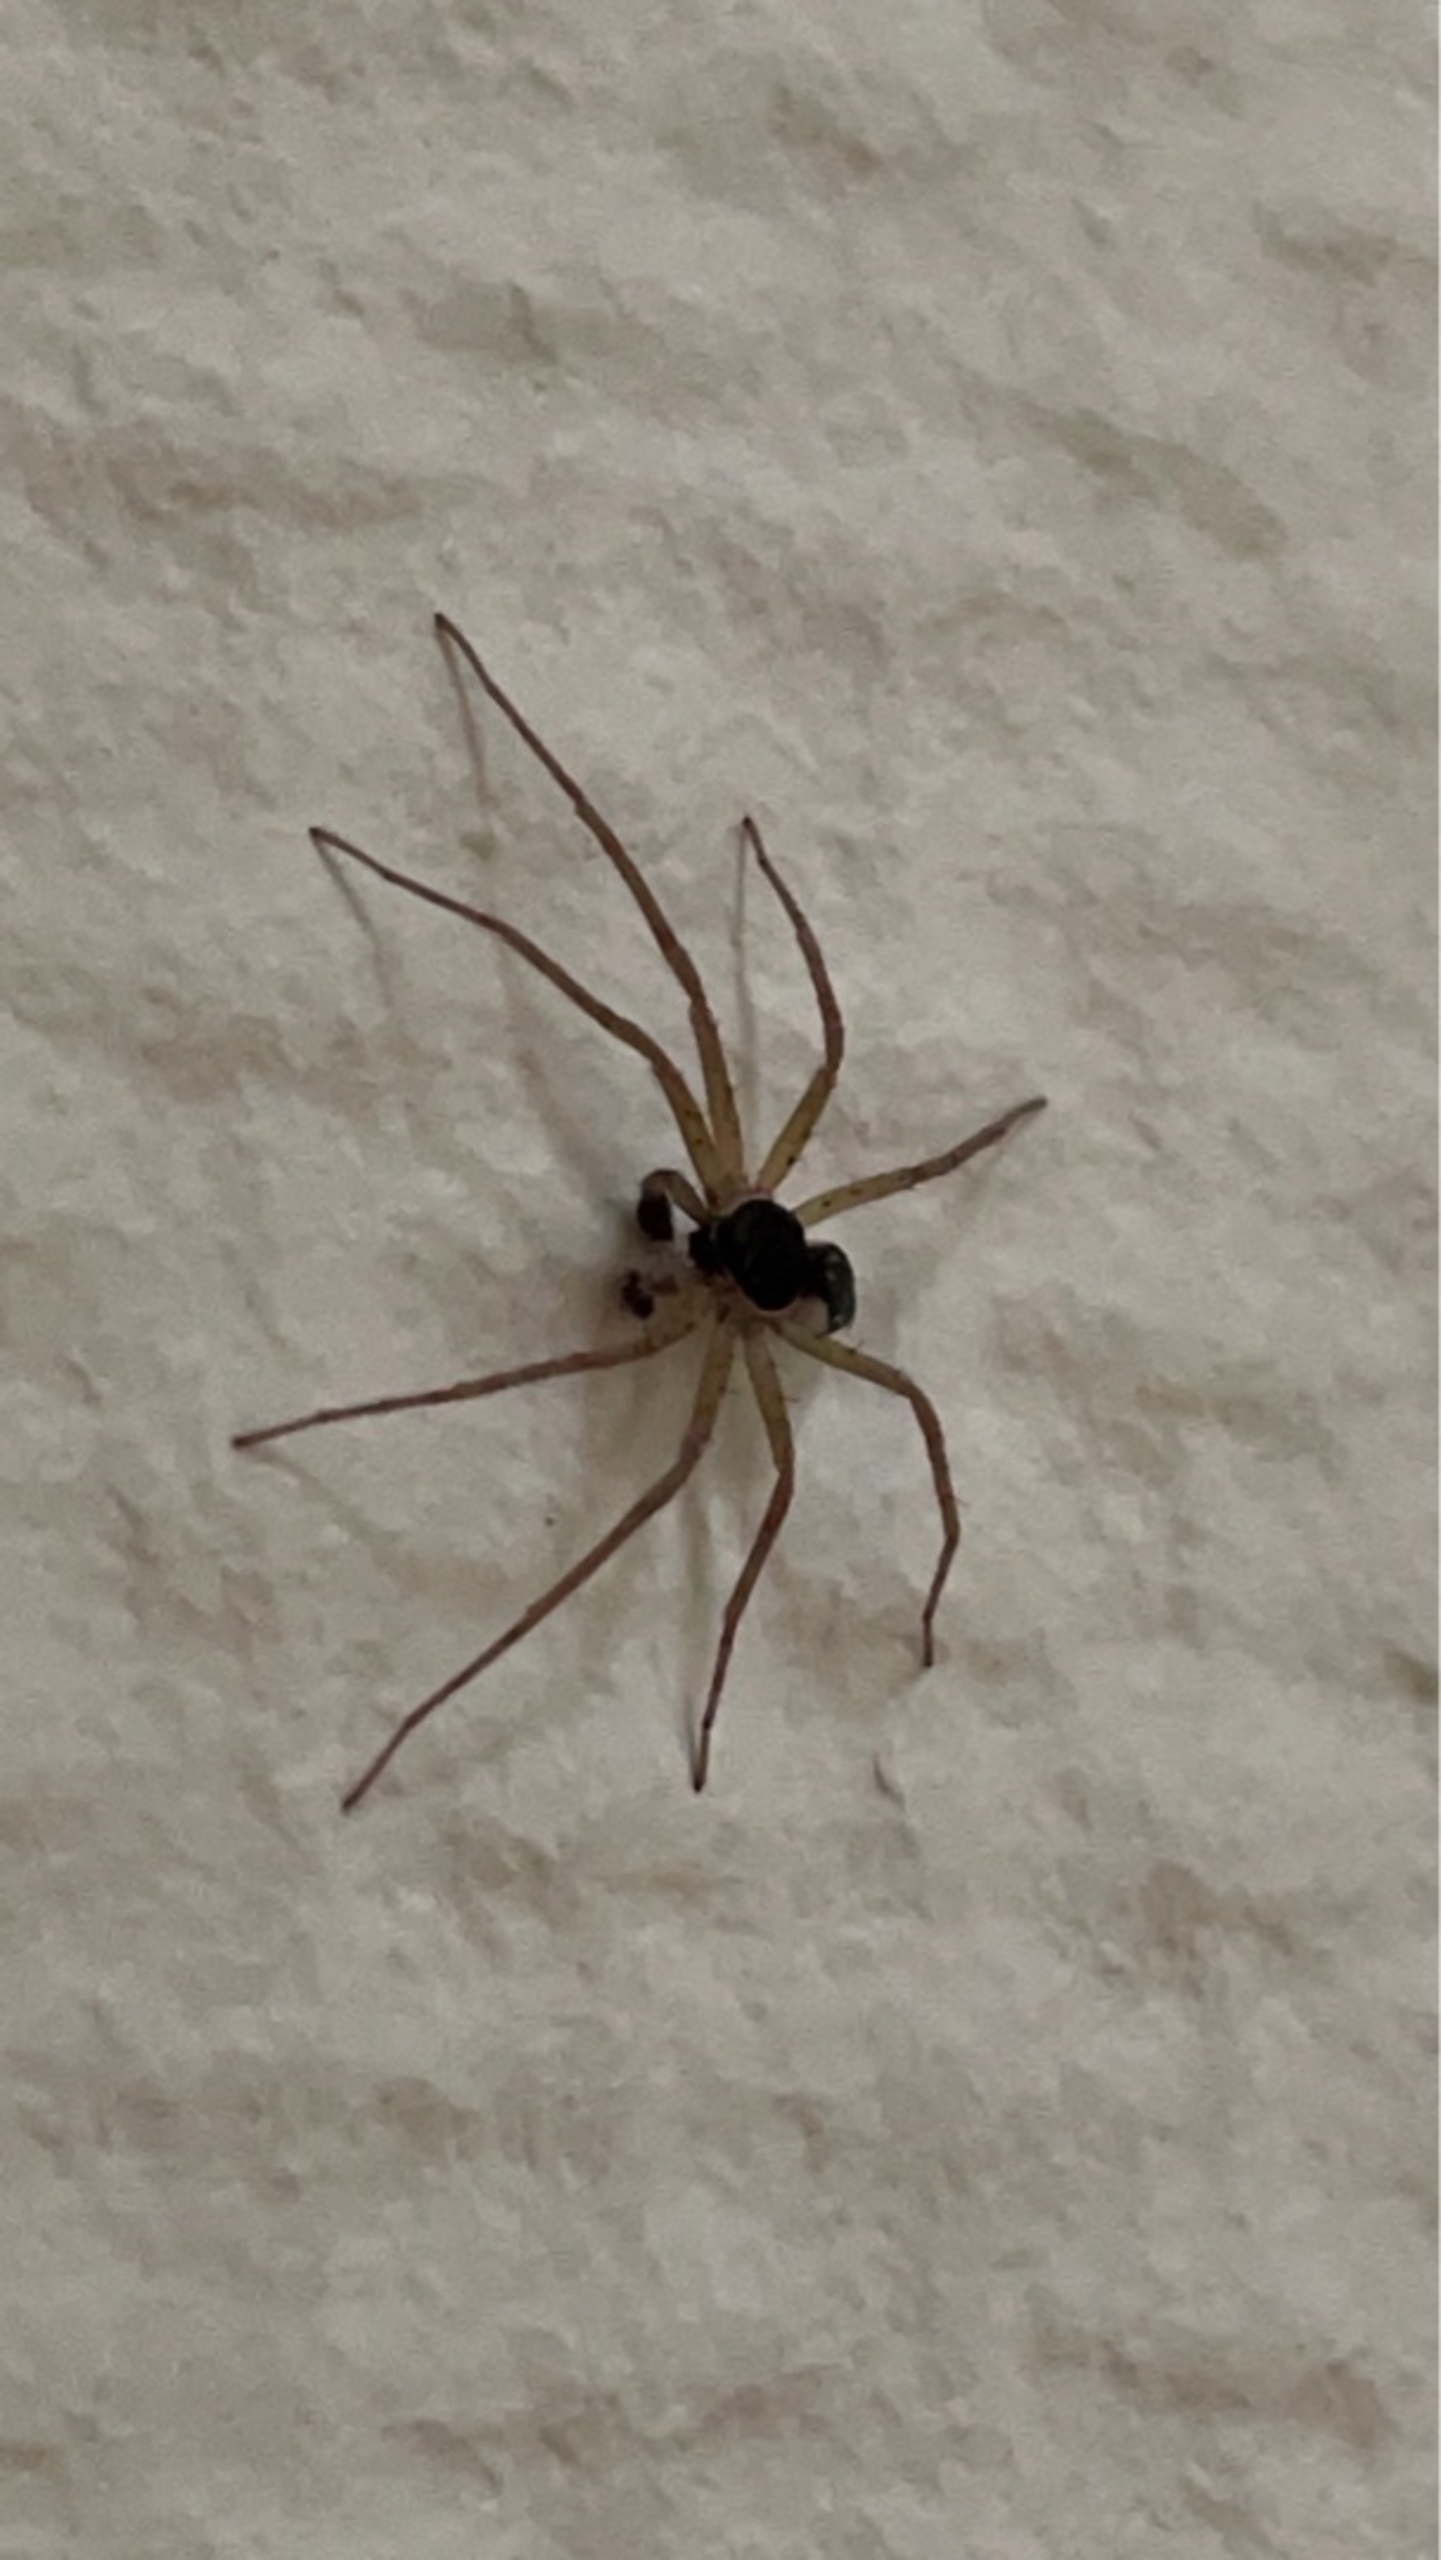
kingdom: Animalia
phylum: Arthropoda
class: Arachnida
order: Araneae
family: Philodromidae
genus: Philodromus
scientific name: Philodromus dispar
